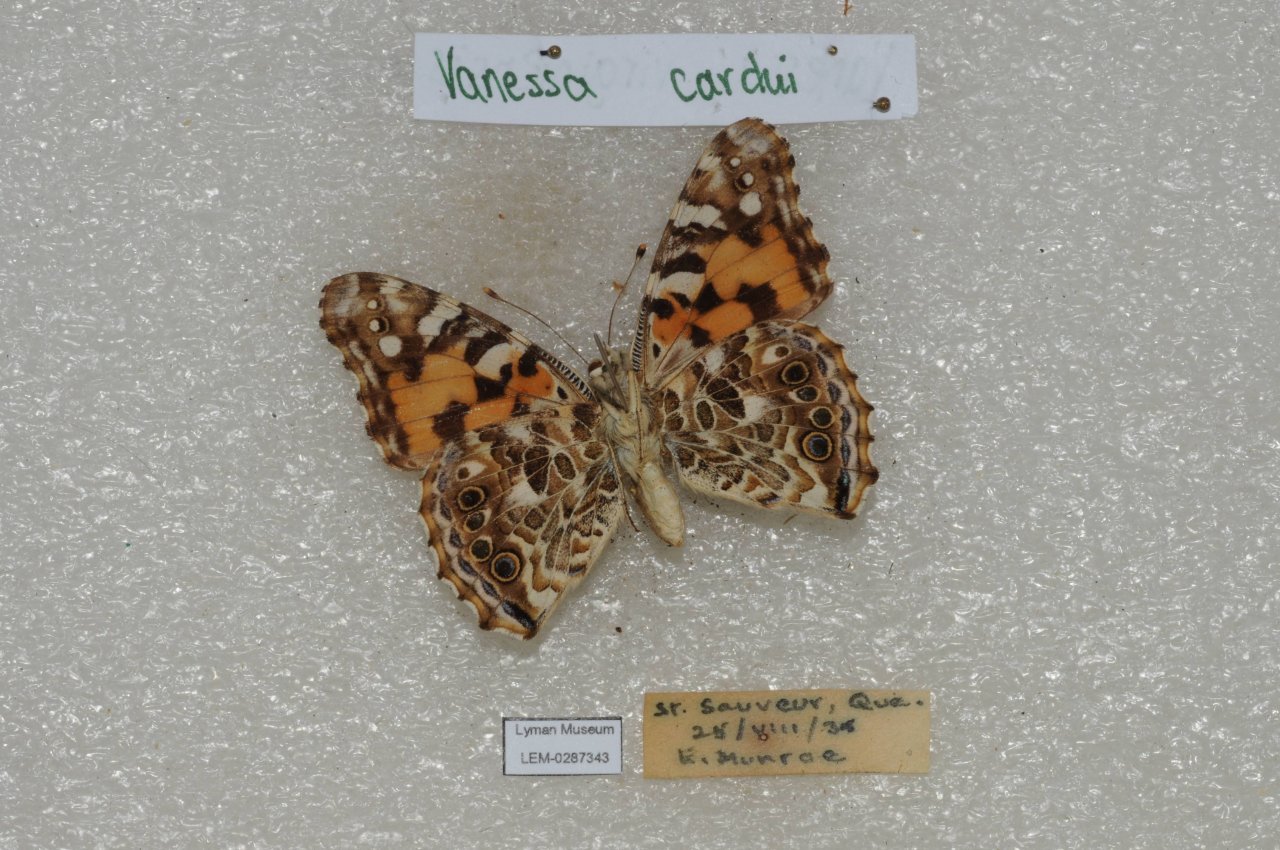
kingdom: Animalia
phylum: Arthropoda
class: Insecta
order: Lepidoptera
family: Nymphalidae
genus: Vanessa
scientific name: Vanessa cardui
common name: Painted Lady
